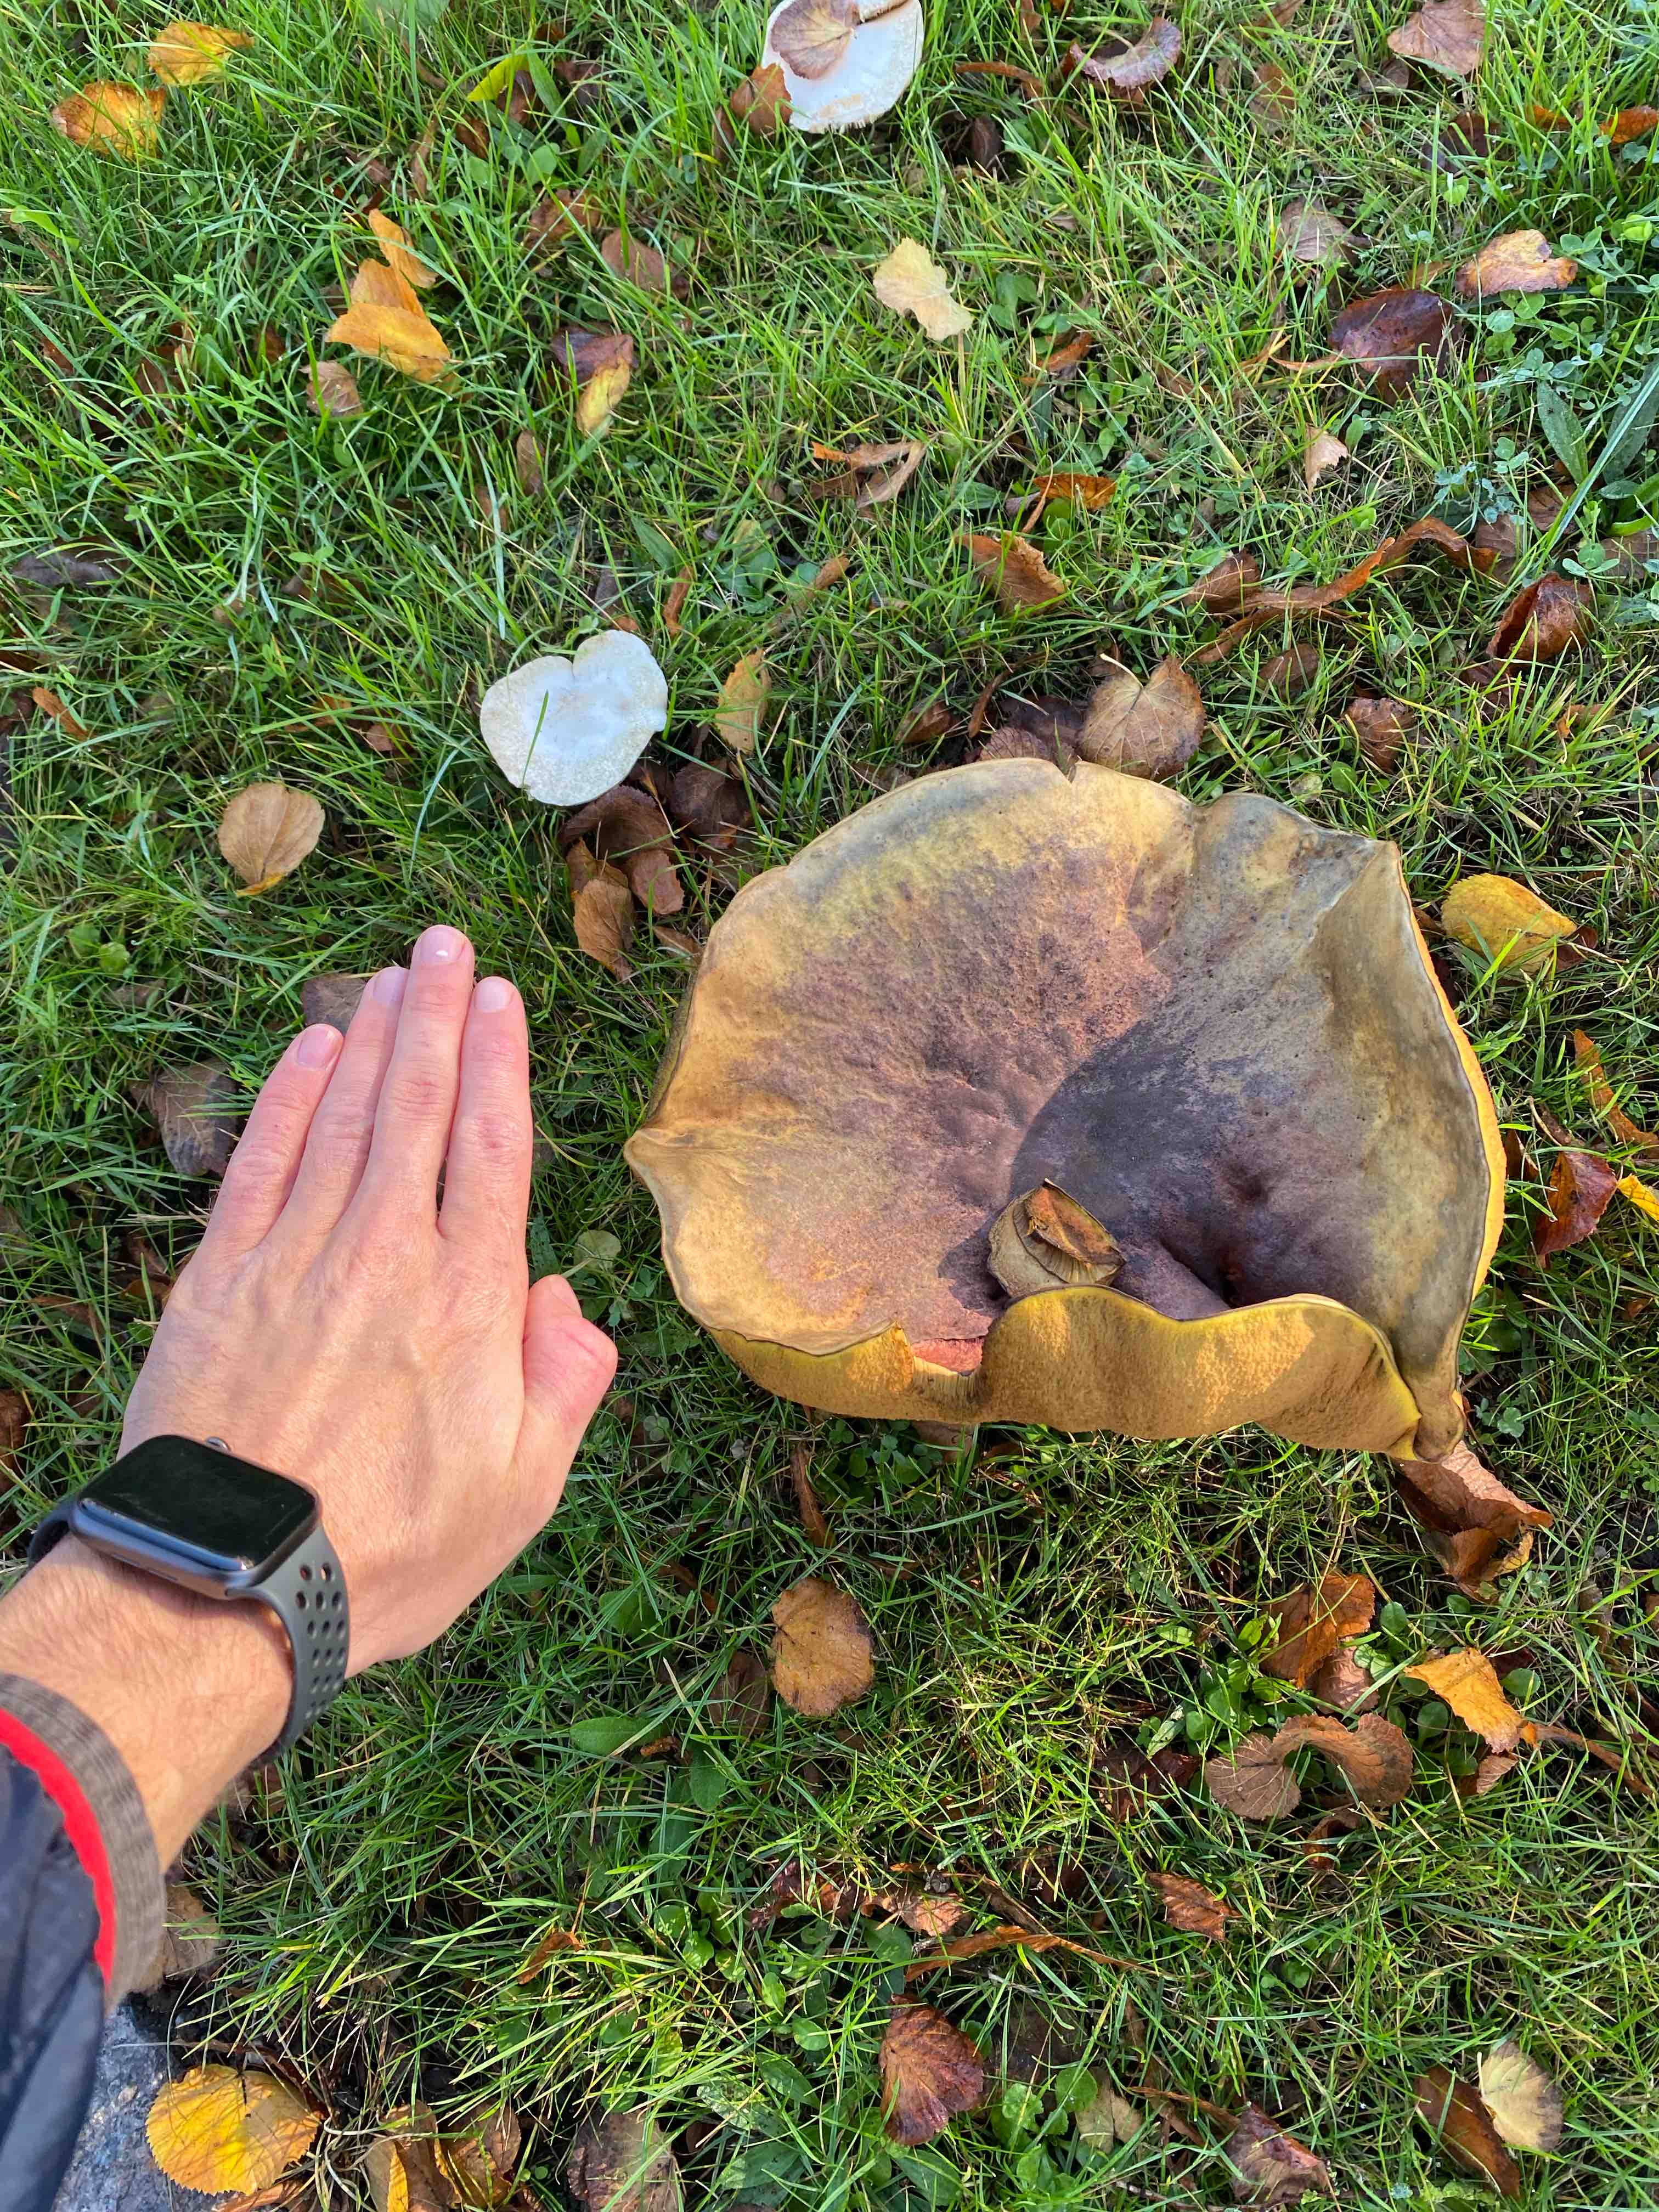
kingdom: Fungi
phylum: Basidiomycota
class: Agaricomycetes
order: Boletales
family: Boletaceae
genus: Suillellus
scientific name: Suillellus luridus
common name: netstokket indigorørhat
